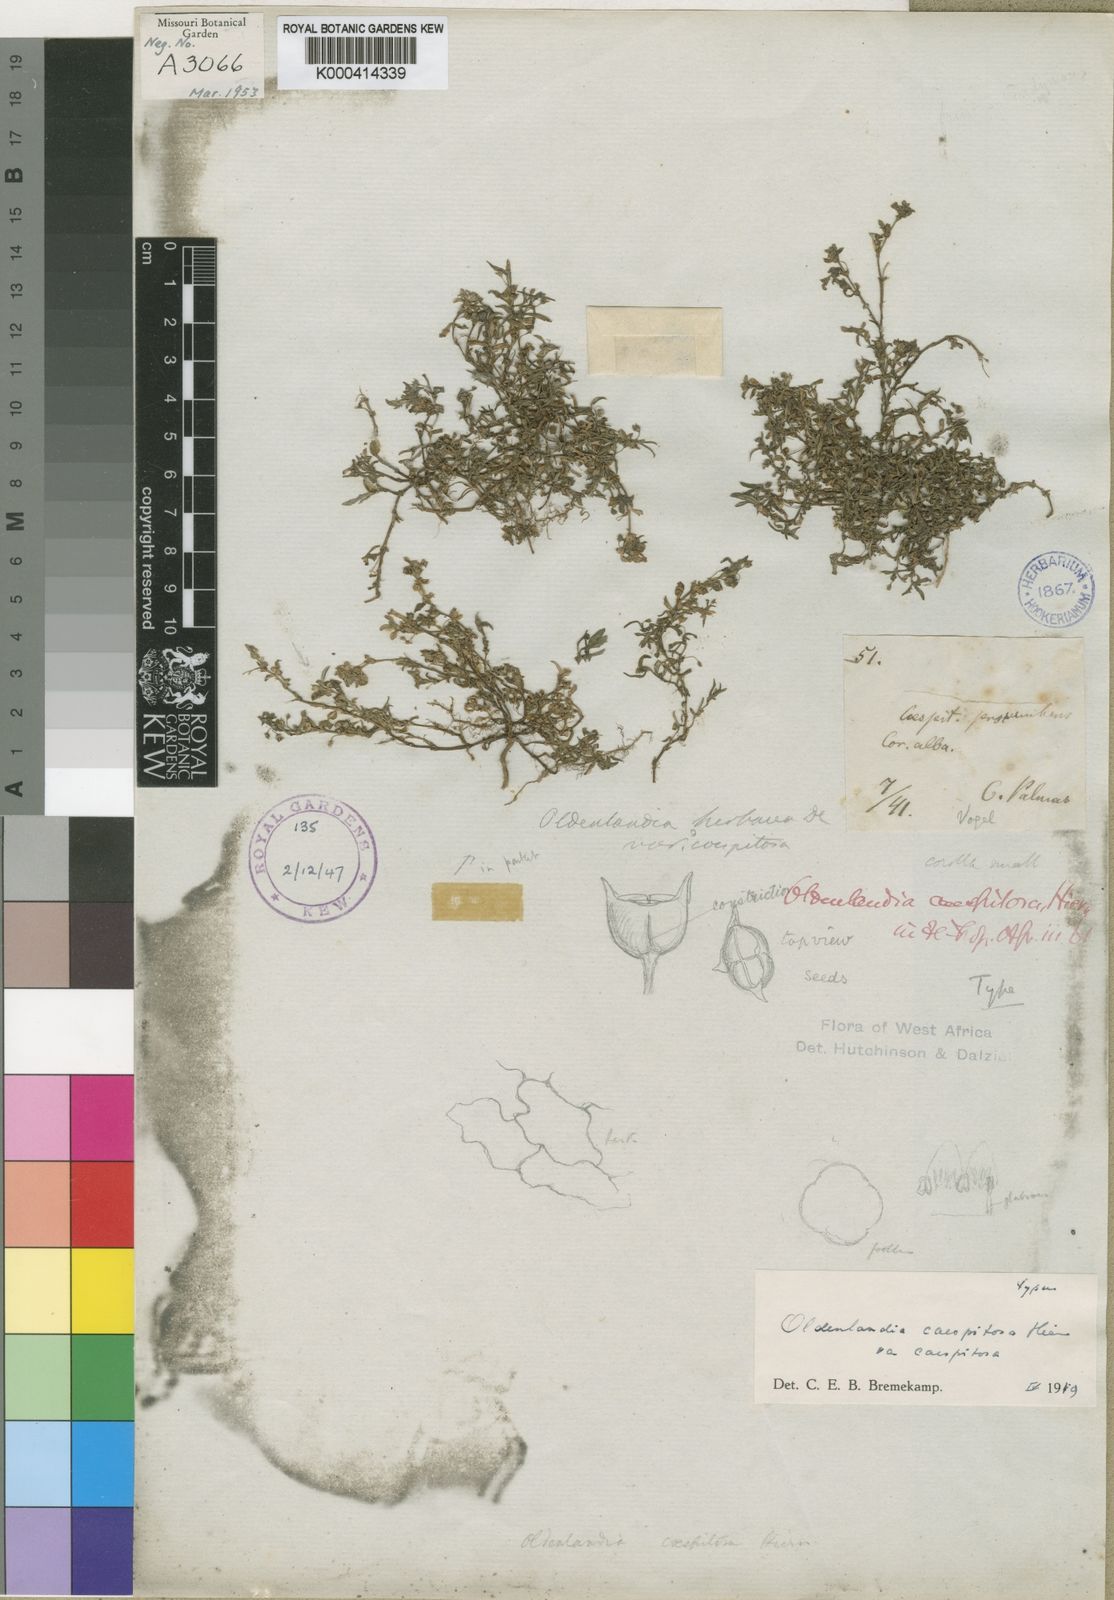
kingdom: Plantae
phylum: Tracheophyta
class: Magnoliopsida
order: Gentianales
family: Rubiaceae
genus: Oldenlandia
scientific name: Oldenlandia corymbosa
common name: Flat-top mille graines
